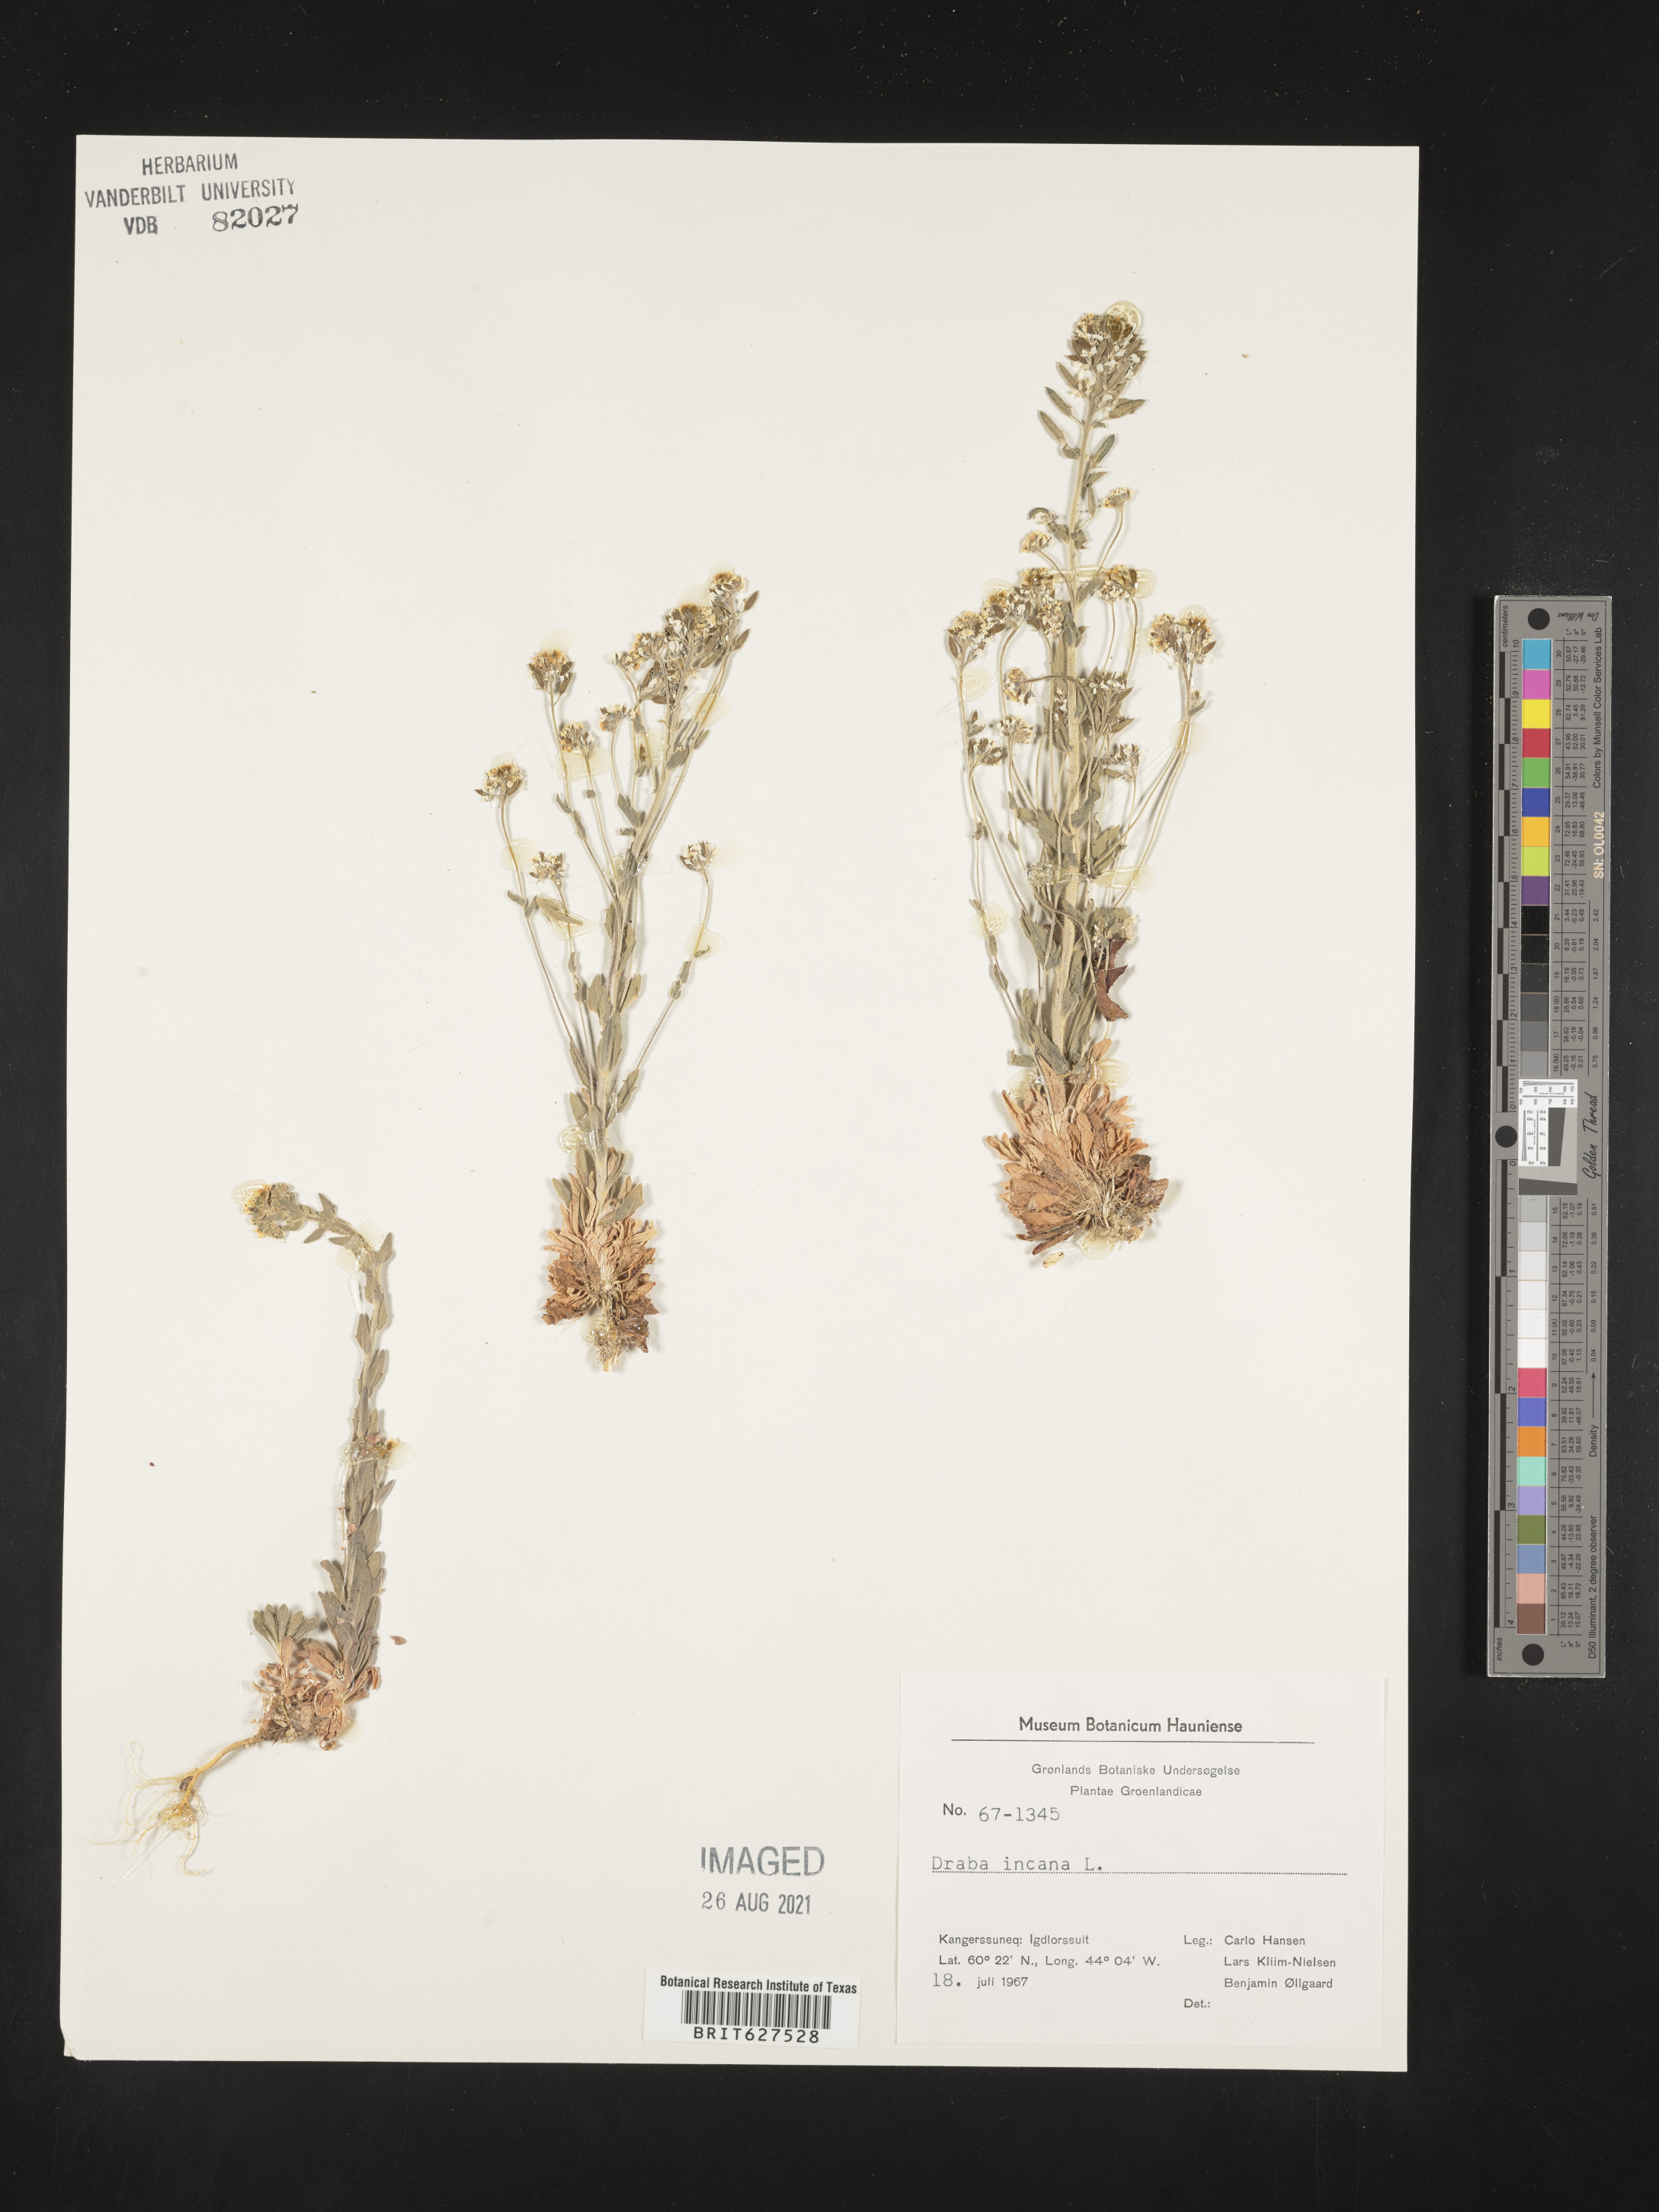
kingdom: Plantae
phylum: Tracheophyta
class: Magnoliopsida
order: Brassicales
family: Brassicaceae
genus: Draba
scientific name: Draba incana
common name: Hoary whitlow-grass
